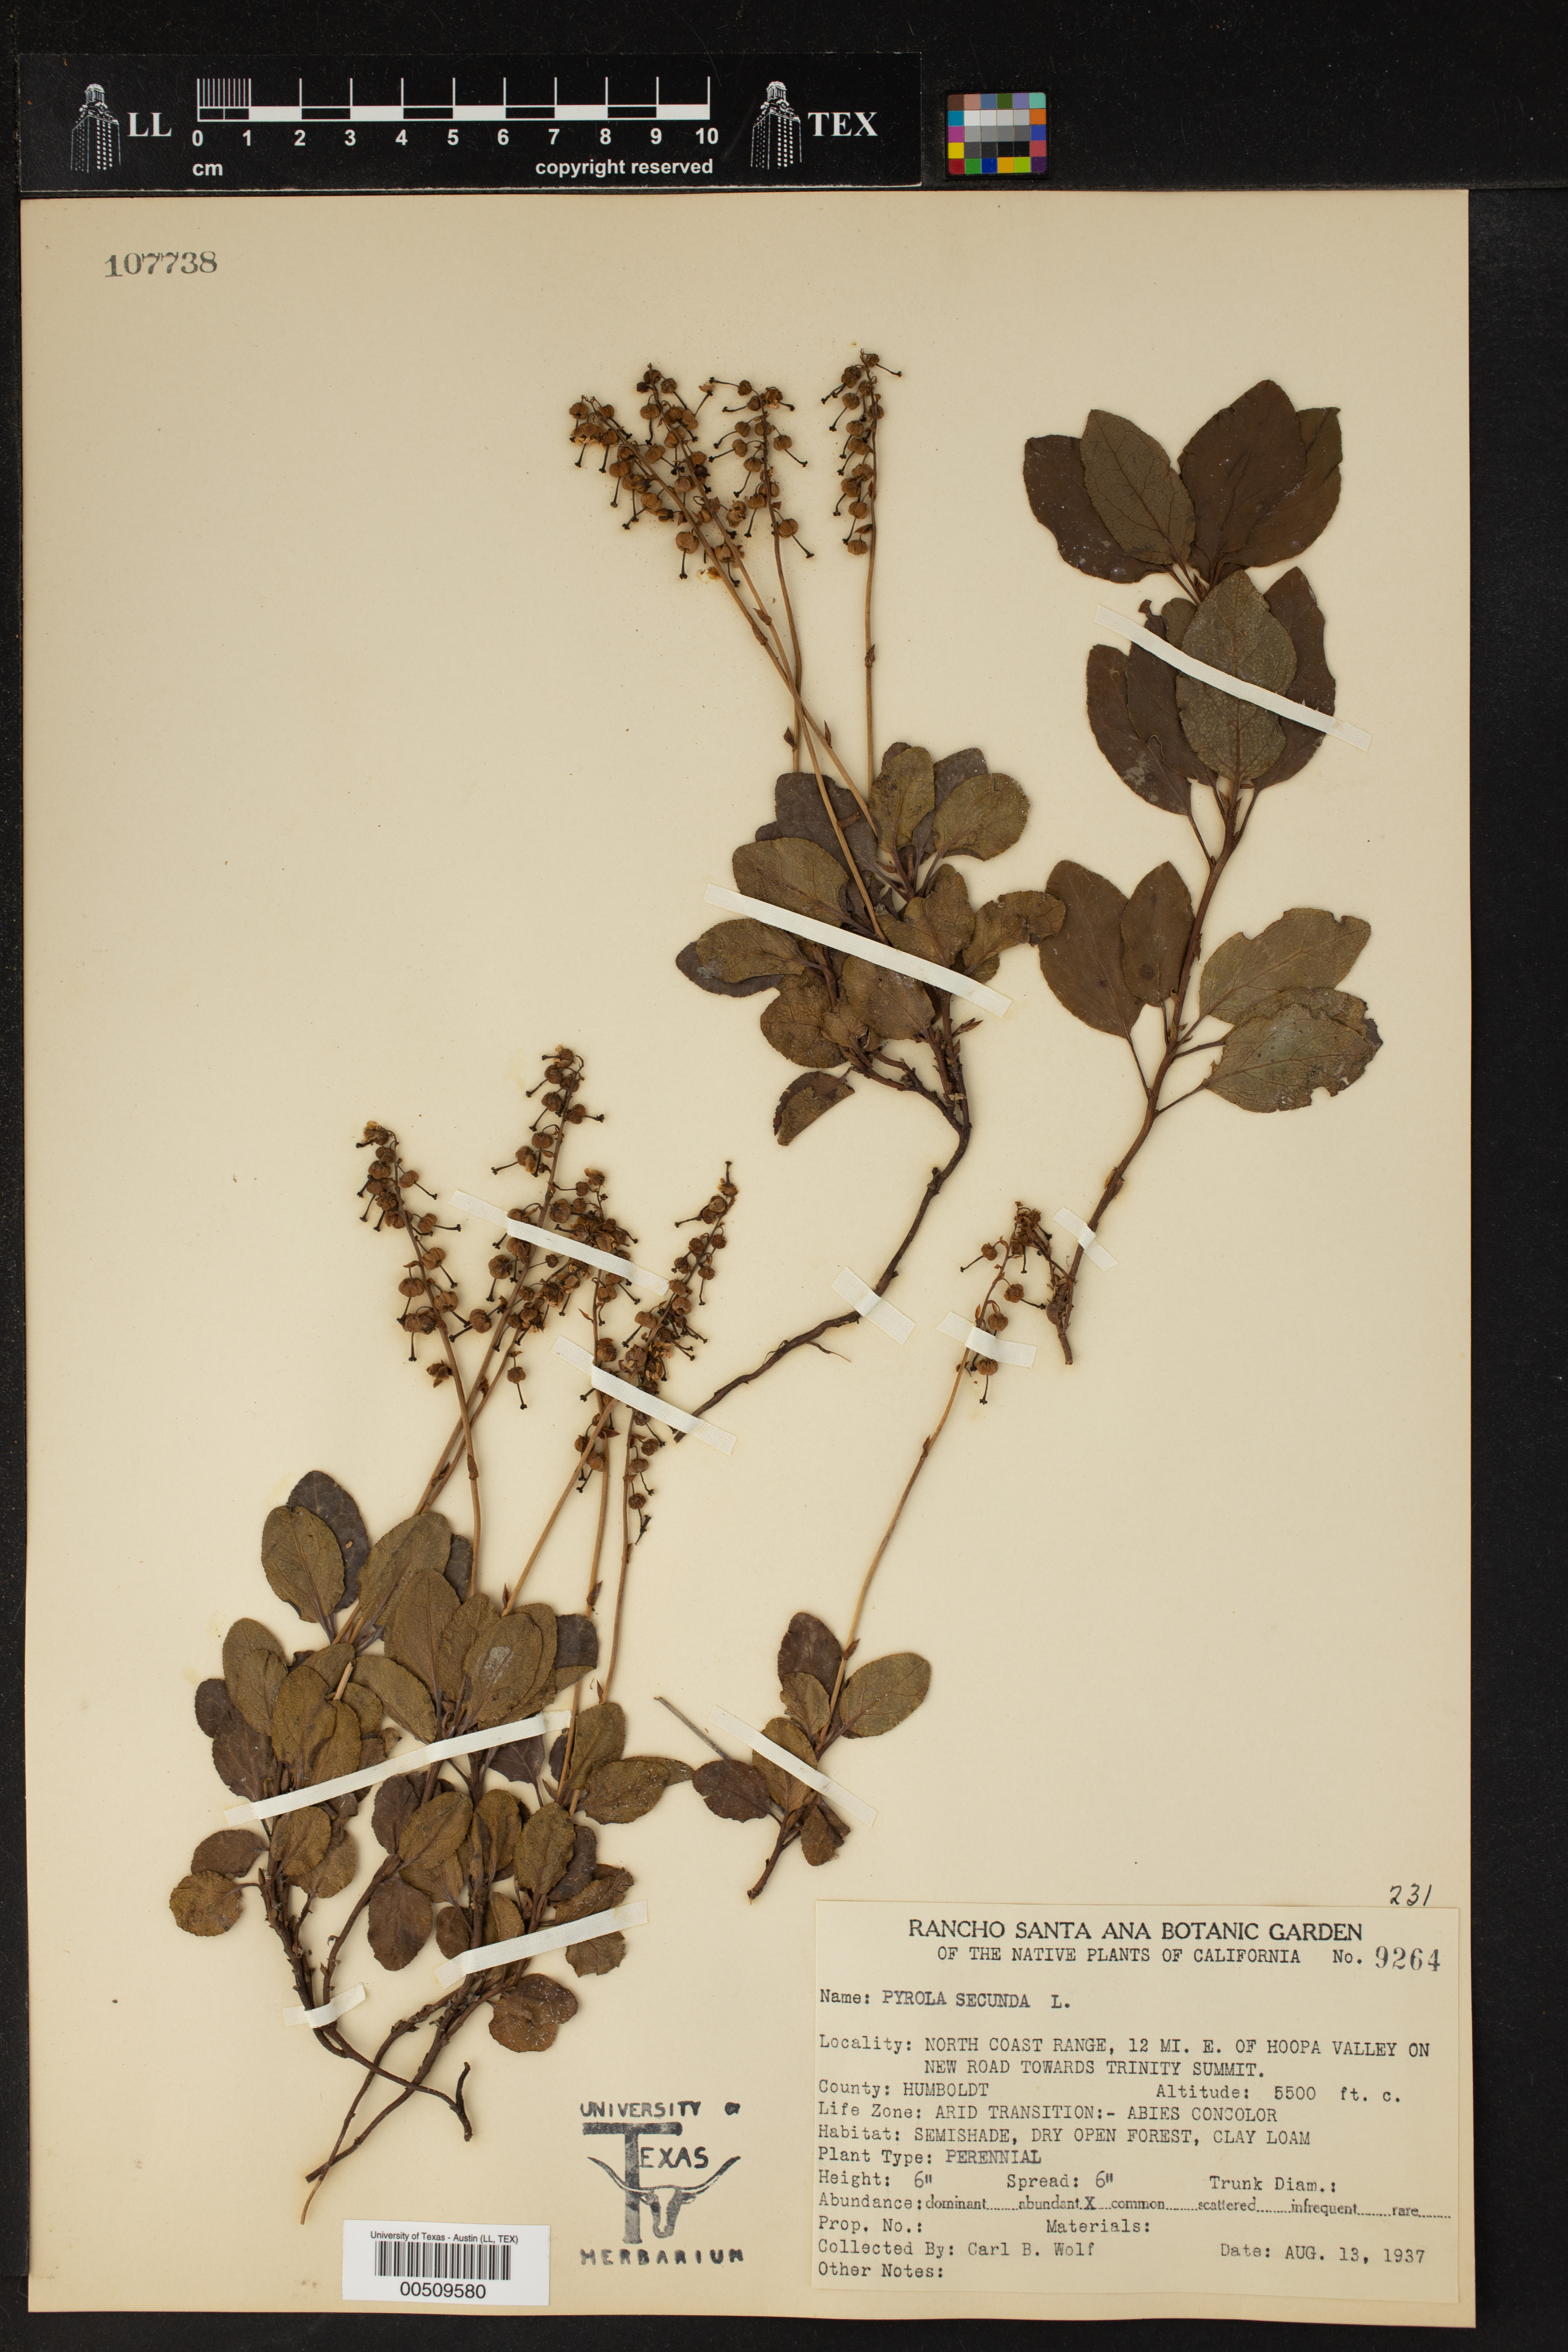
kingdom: Plantae
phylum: Tracheophyta
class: Magnoliopsida
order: Ericales
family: Ericaceae
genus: Orthilia
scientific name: Orthilia secunda
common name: One-sided orthilia
